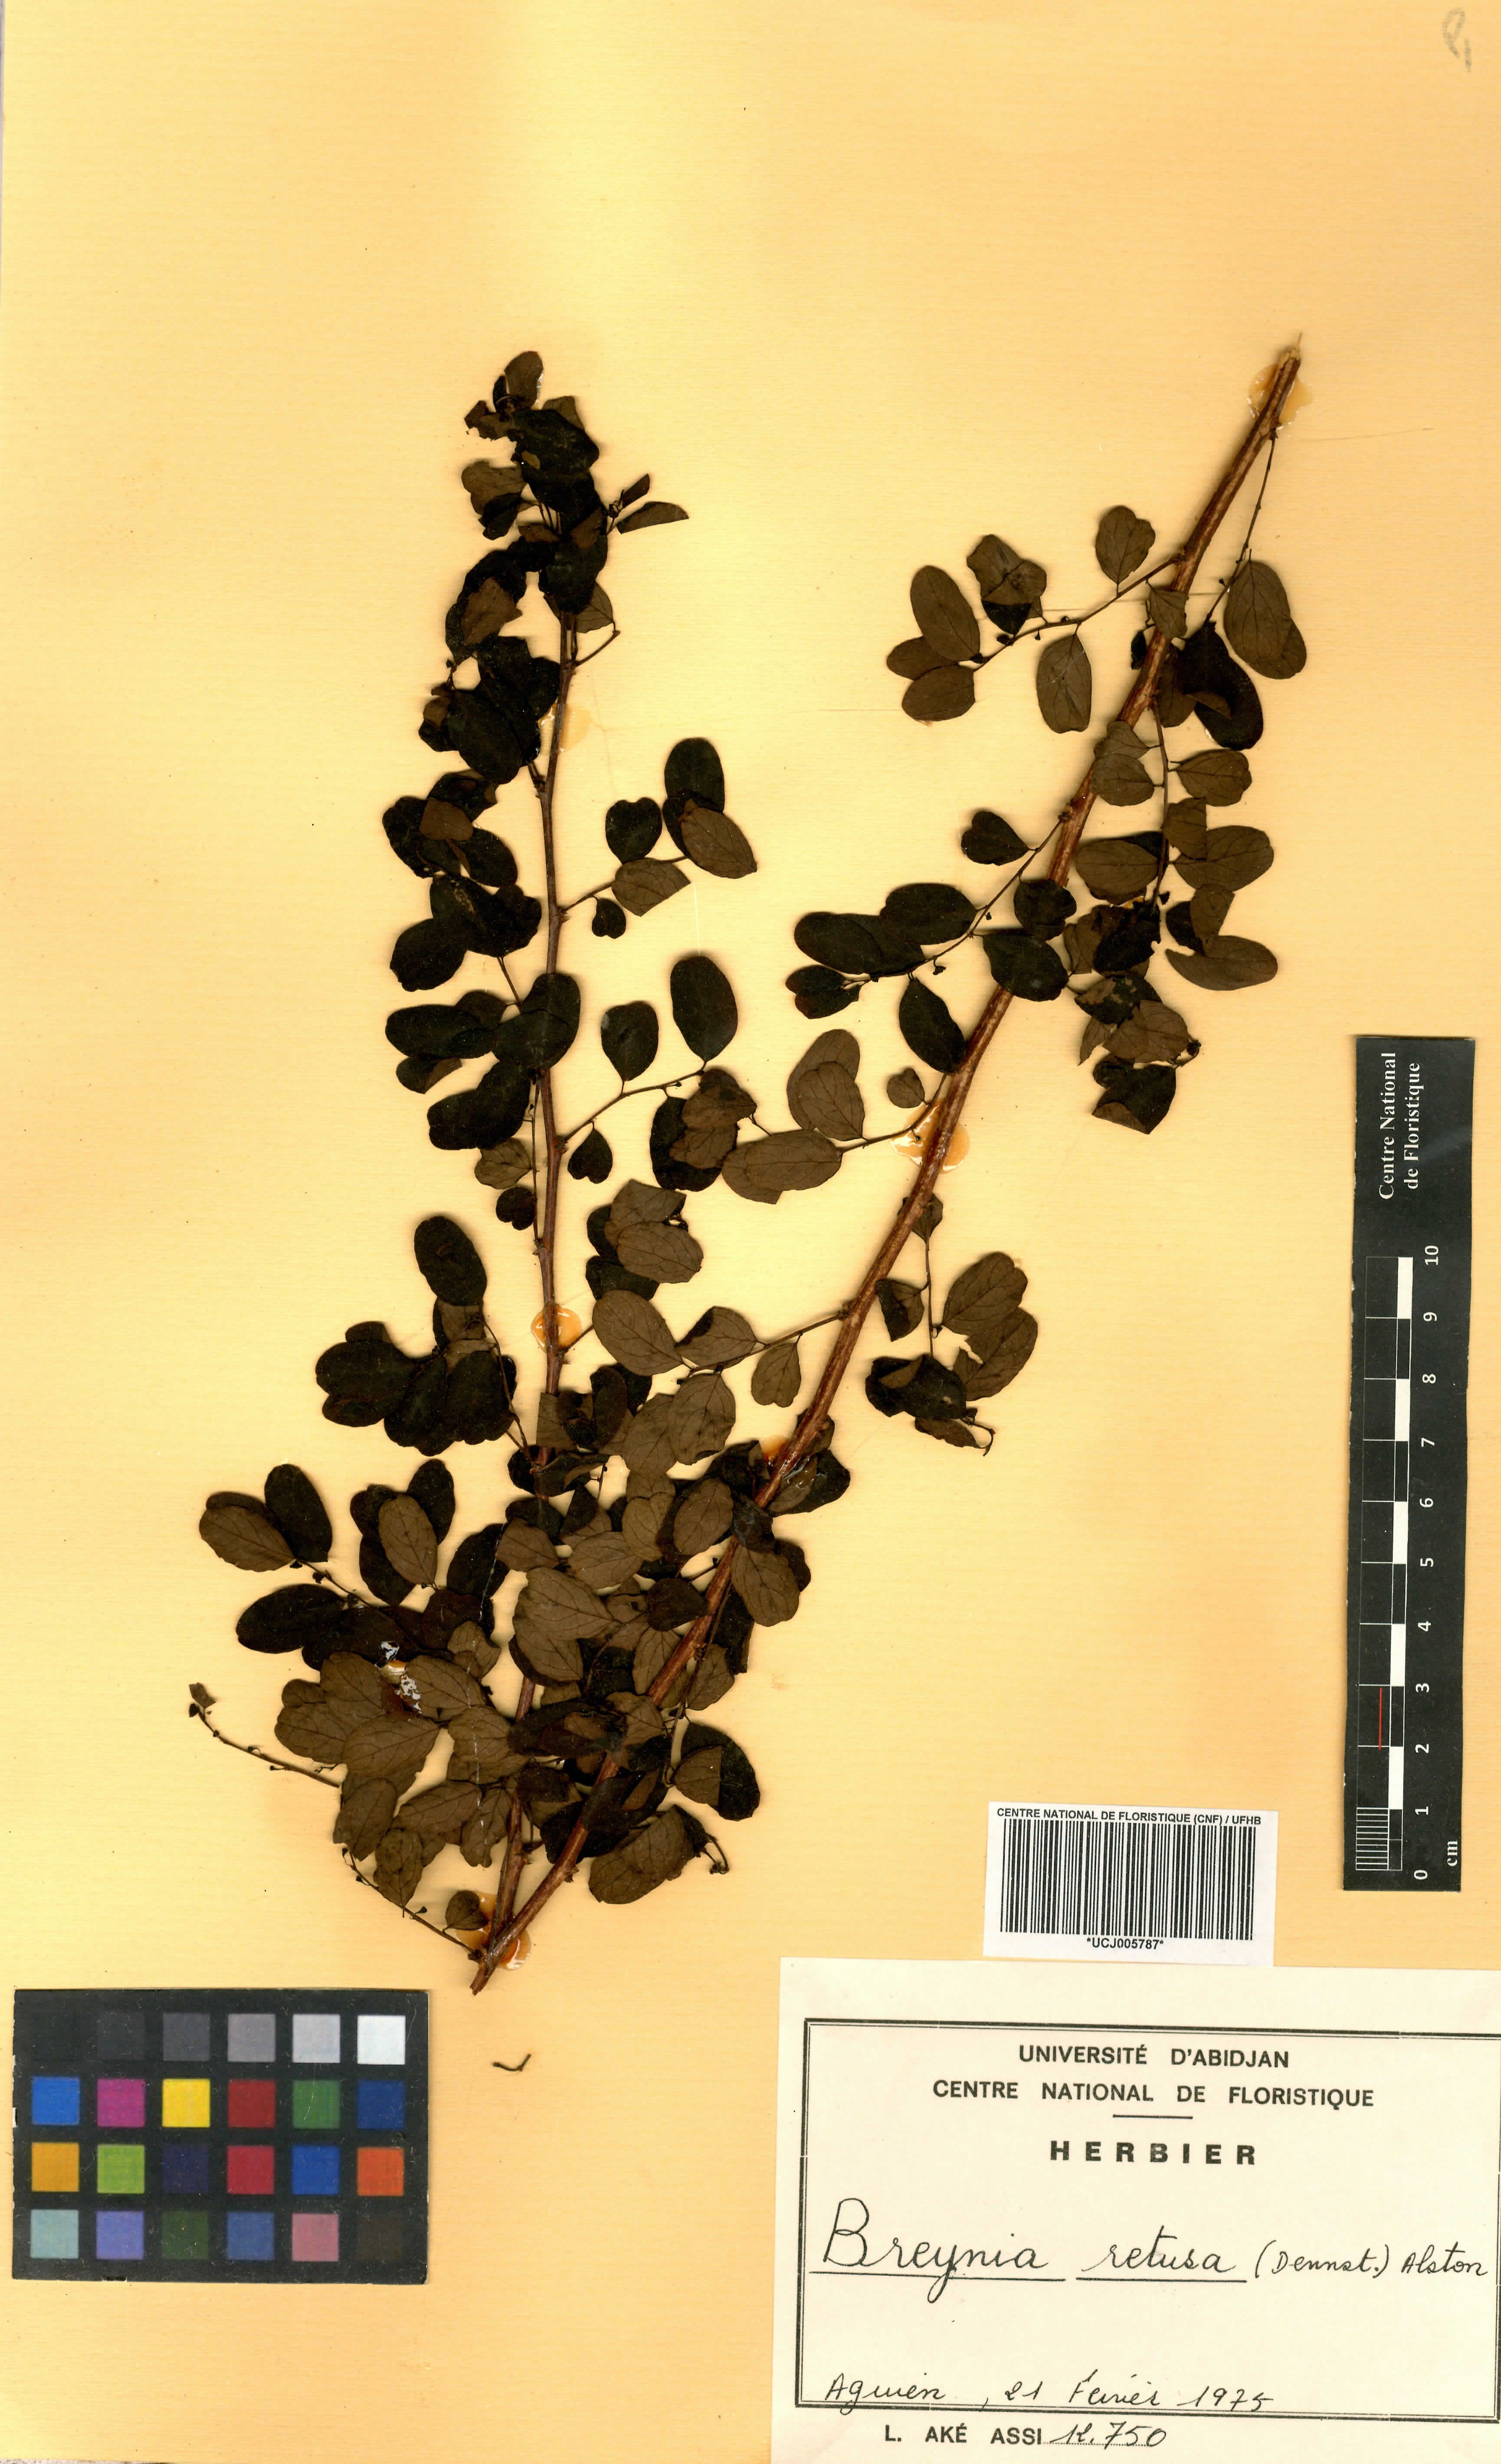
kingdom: Plantae
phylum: Tracheophyta
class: Magnoliopsida
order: Malpighiales
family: Phyllanthaceae
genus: Breynia
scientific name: Breynia retusa
